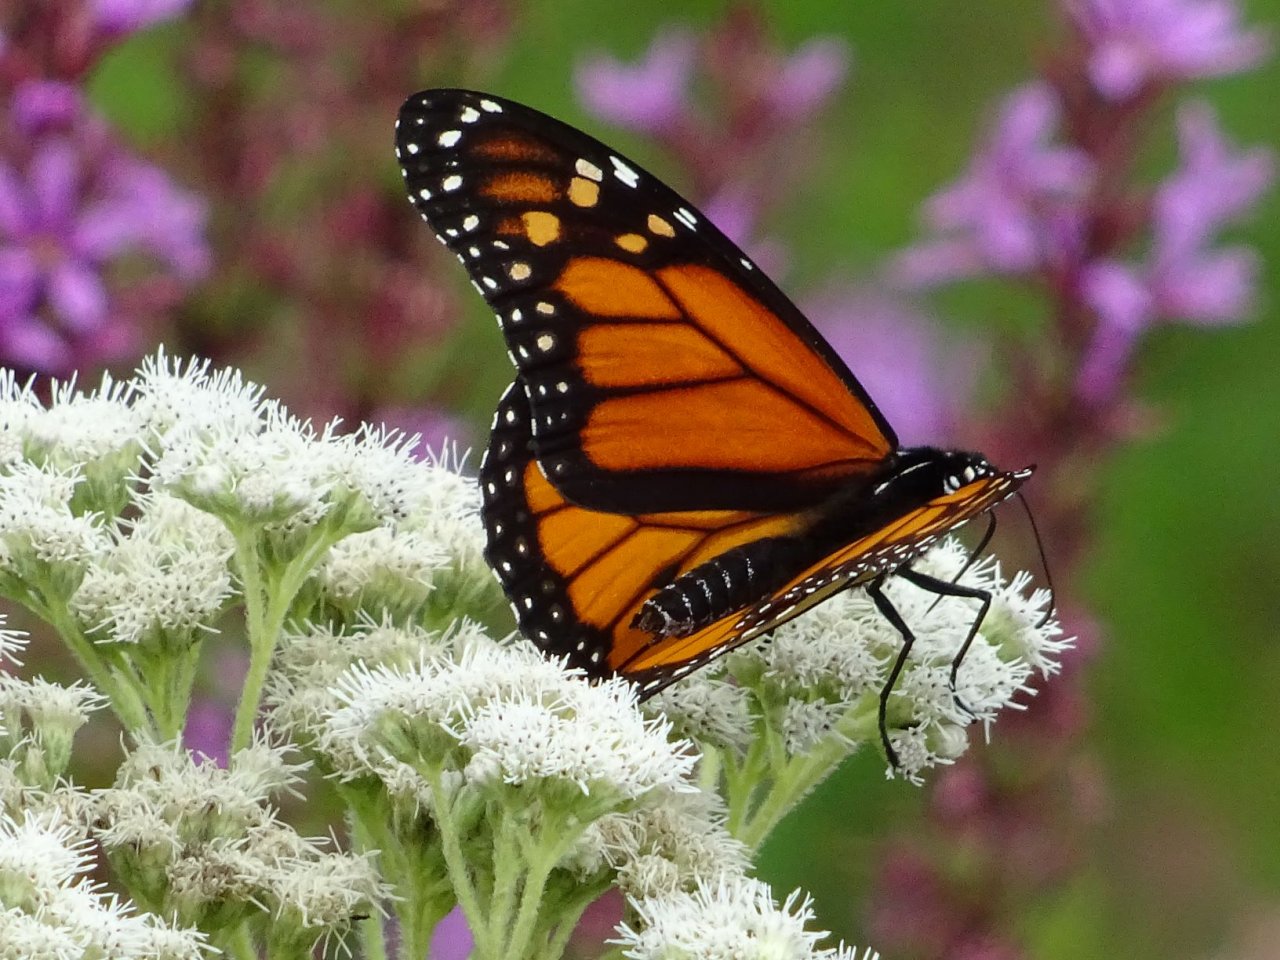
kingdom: Animalia
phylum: Arthropoda
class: Insecta
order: Lepidoptera
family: Nymphalidae
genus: Danaus
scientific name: Danaus plexippus
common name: Monarch
